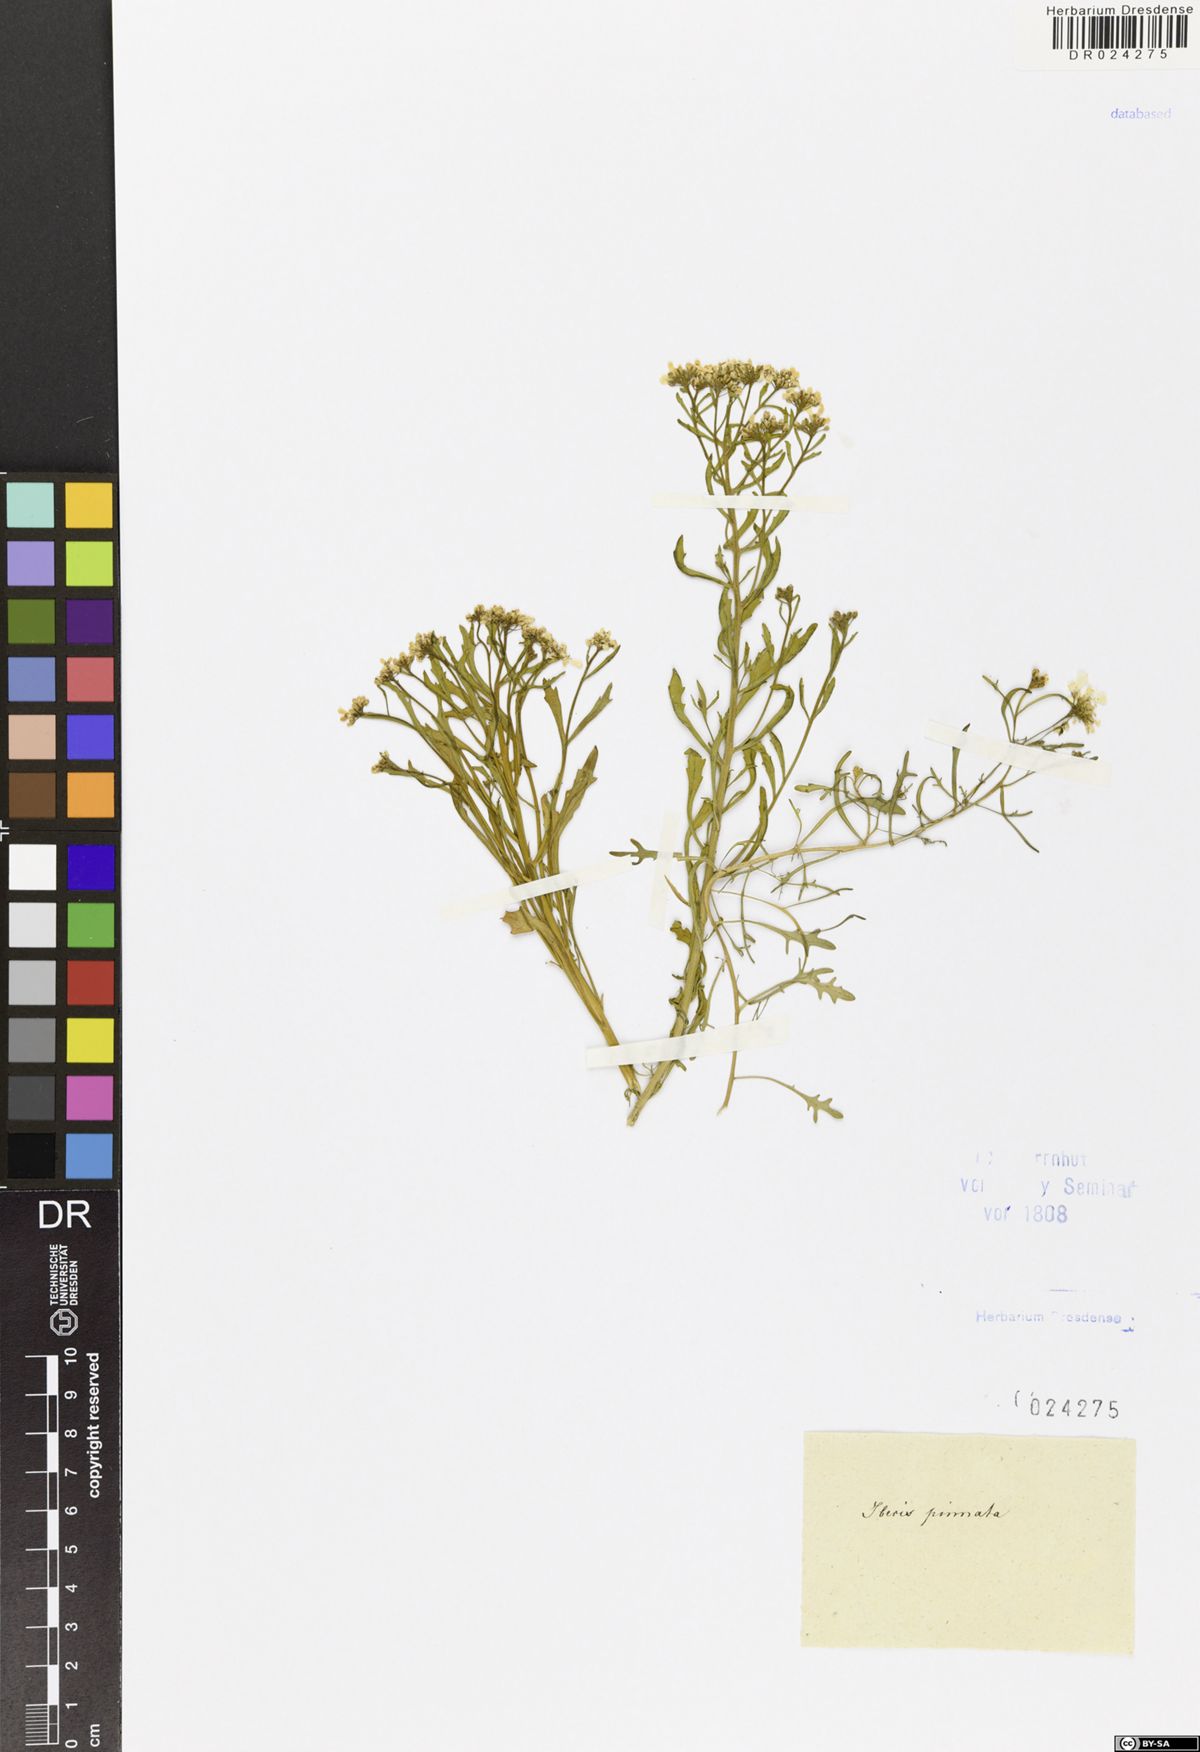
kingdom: Plantae
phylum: Tracheophyta
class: Magnoliopsida
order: Brassicales
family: Brassicaceae
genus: Iberis
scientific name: Iberis amara
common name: Annual candytuft
